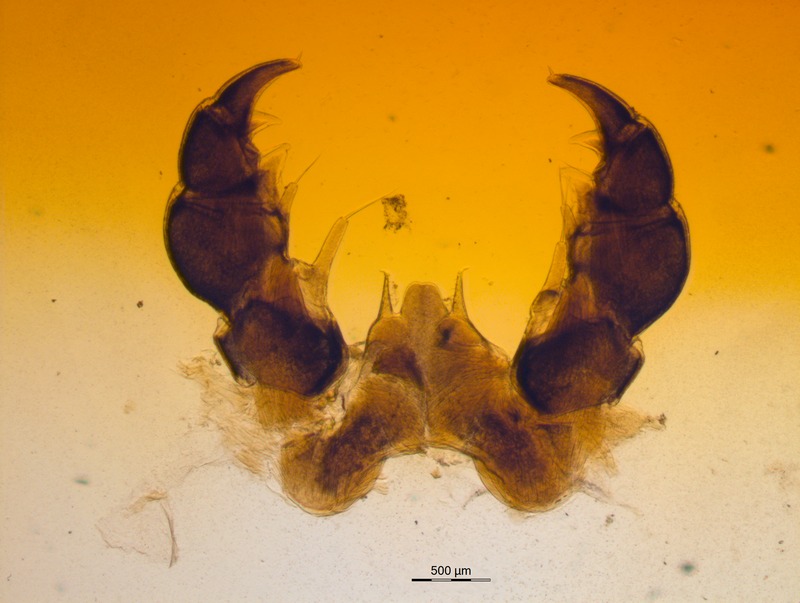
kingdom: Animalia
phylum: Arthropoda
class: Diplopoda
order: Glomerida
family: Glomeridae
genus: Glomeris
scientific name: Glomeris klugii
